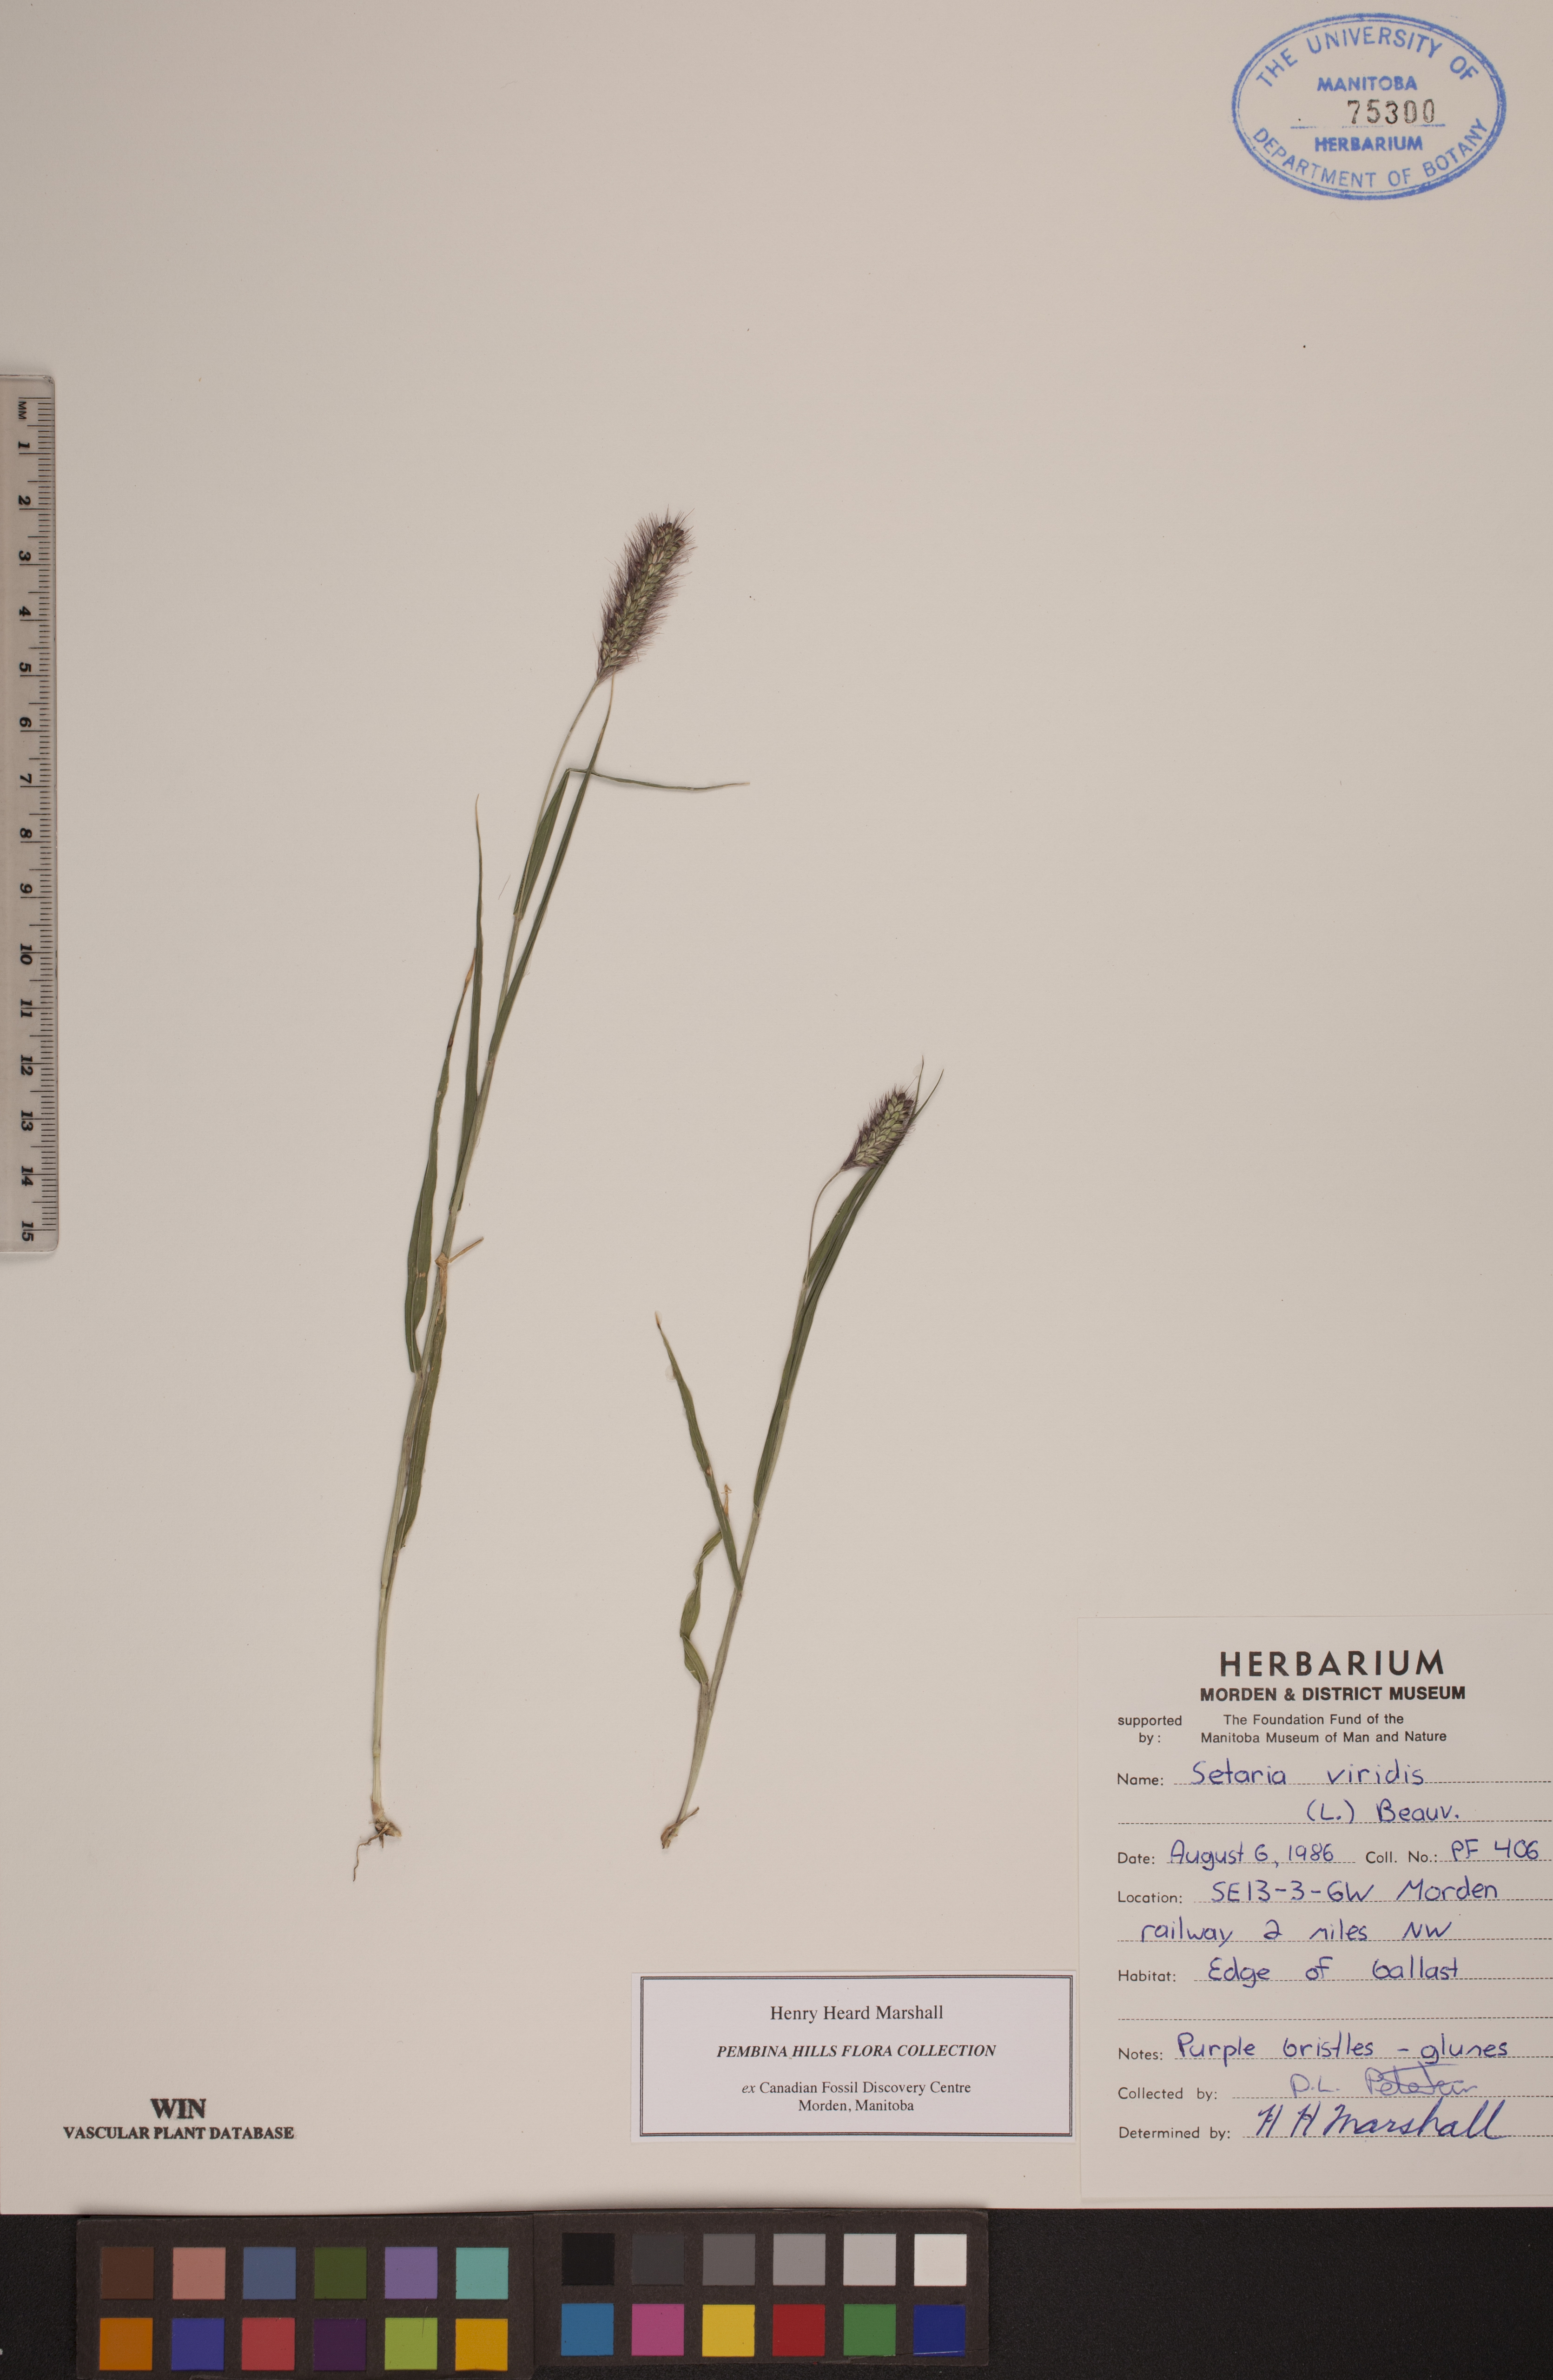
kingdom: Plantae
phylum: Tracheophyta
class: Liliopsida
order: Poales
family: Poaceae
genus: Setaria
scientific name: Setaria viridis
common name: Green bristlegrass
